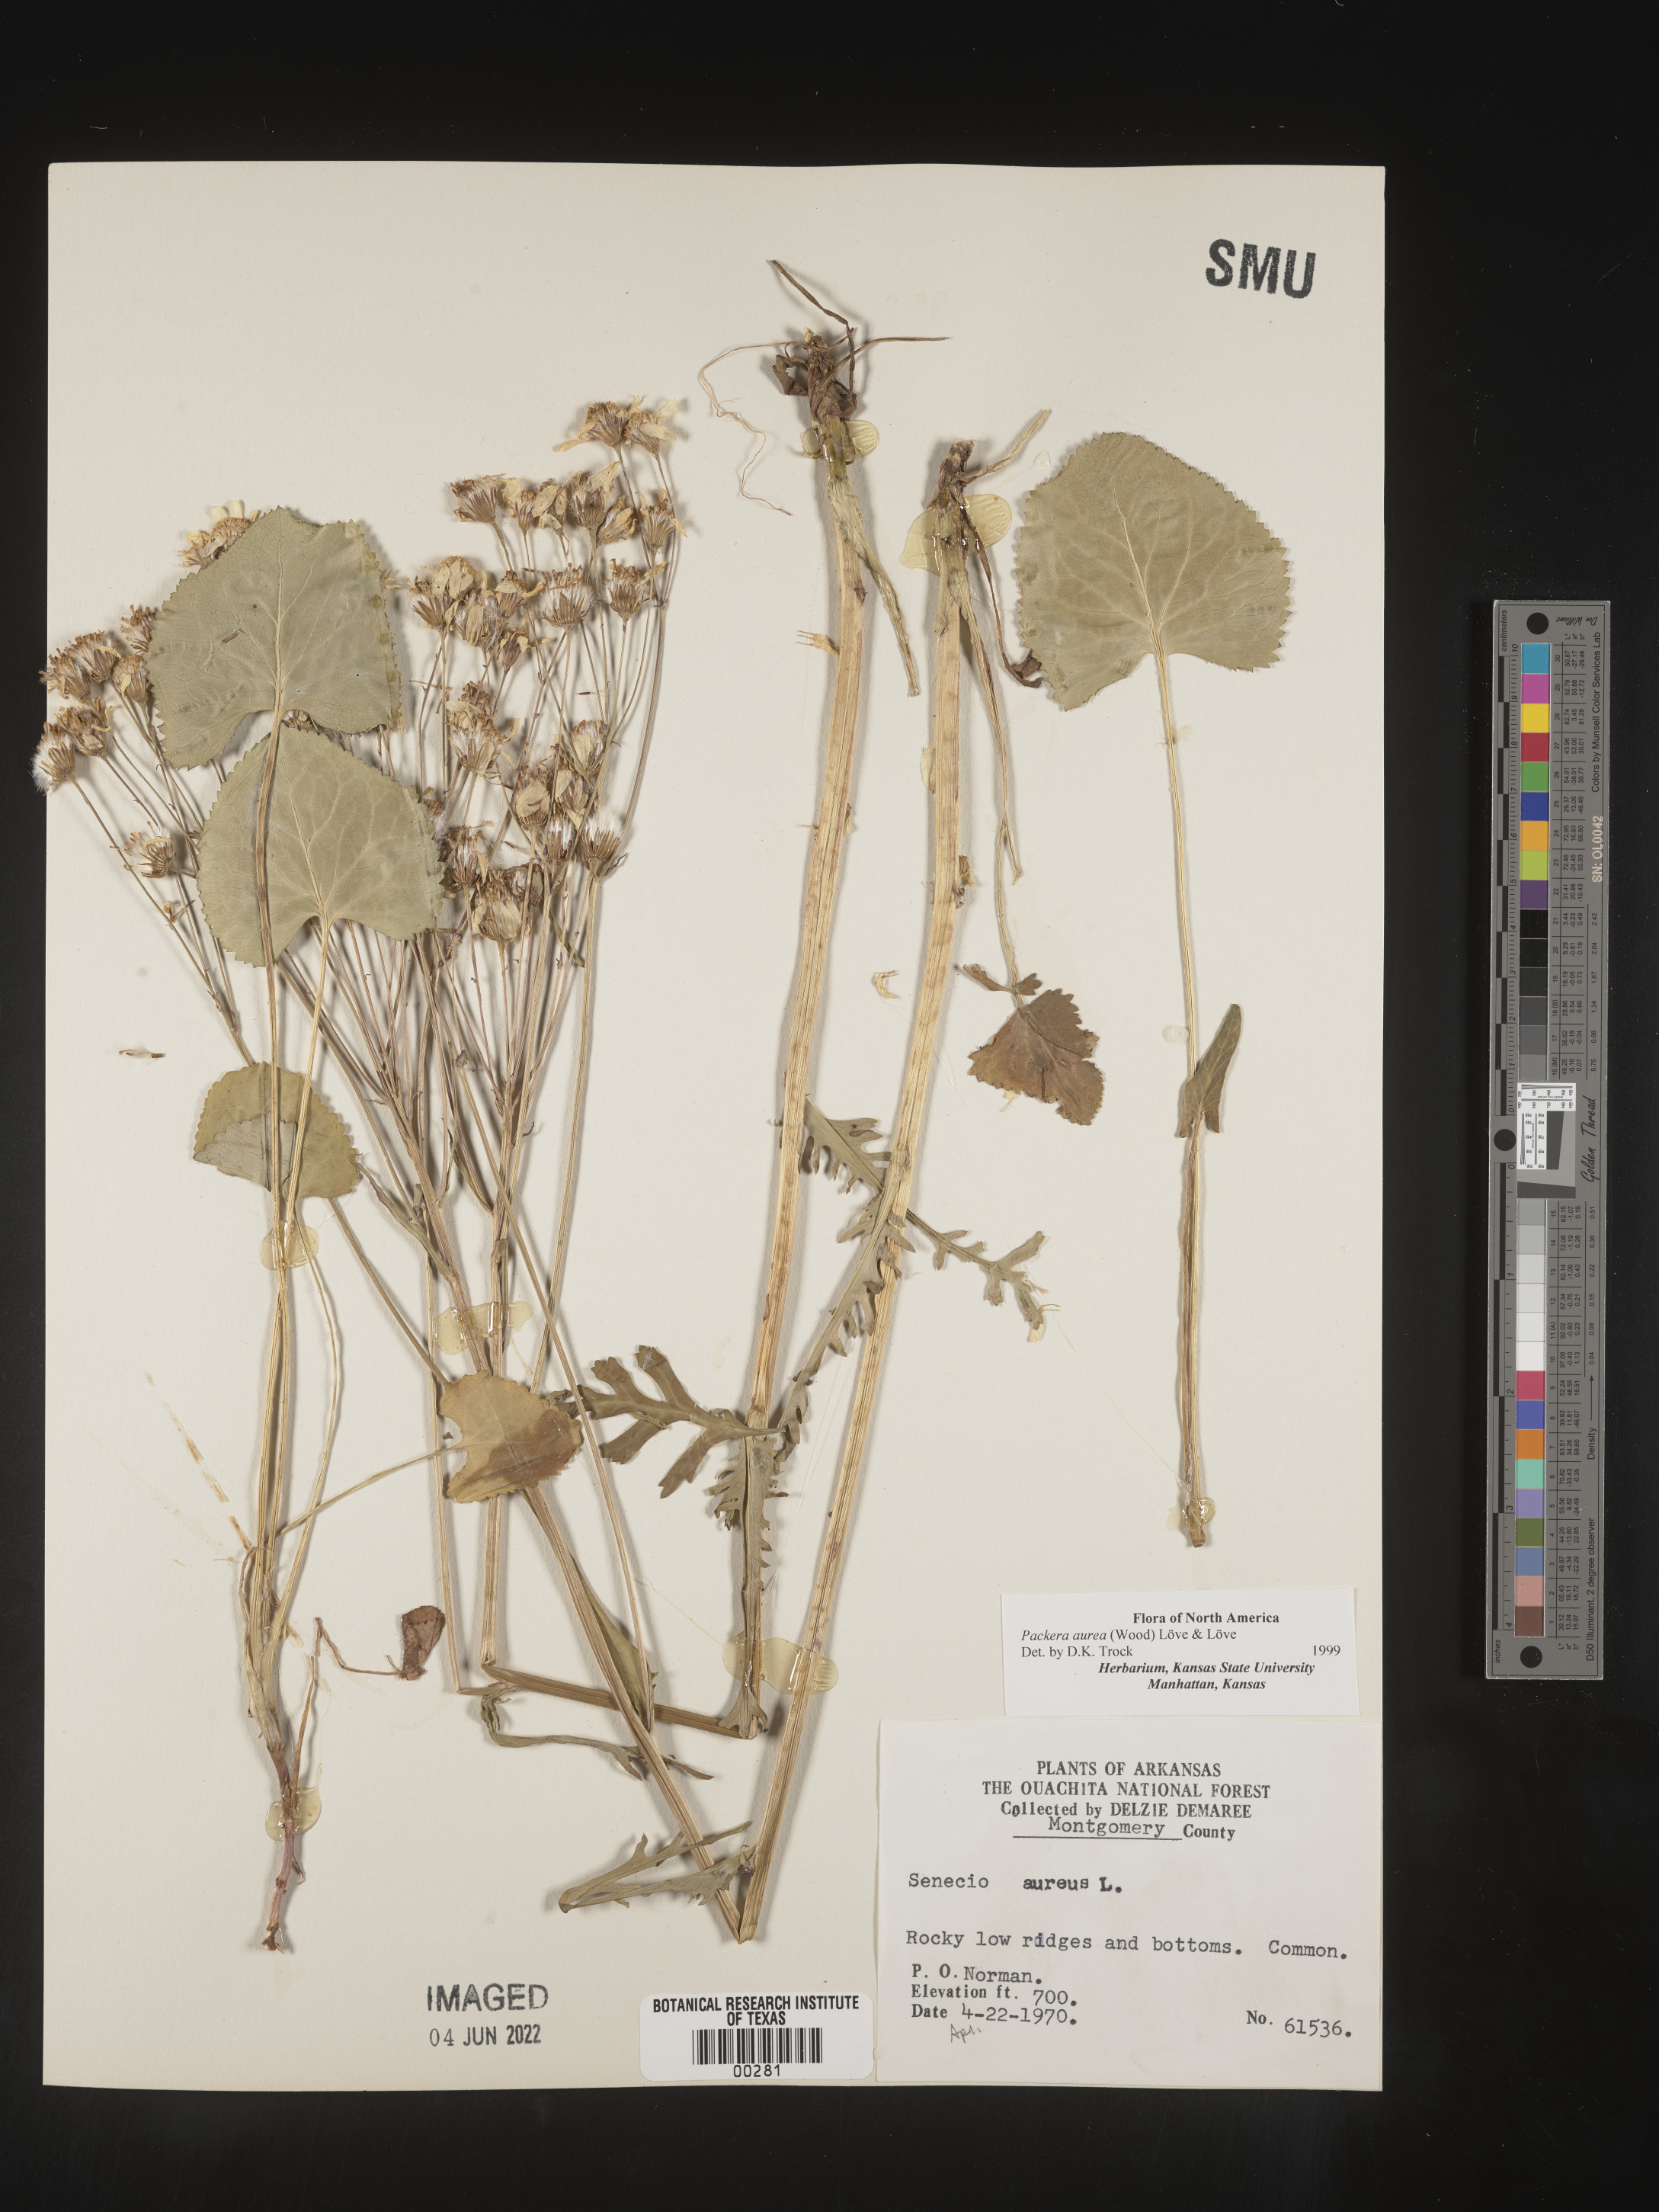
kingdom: Plantae
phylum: Tracheophyta
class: Magnoliopsida
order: Asterales
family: Asteraceae
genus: Packera
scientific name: Packera aurea
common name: Golden groundsel
